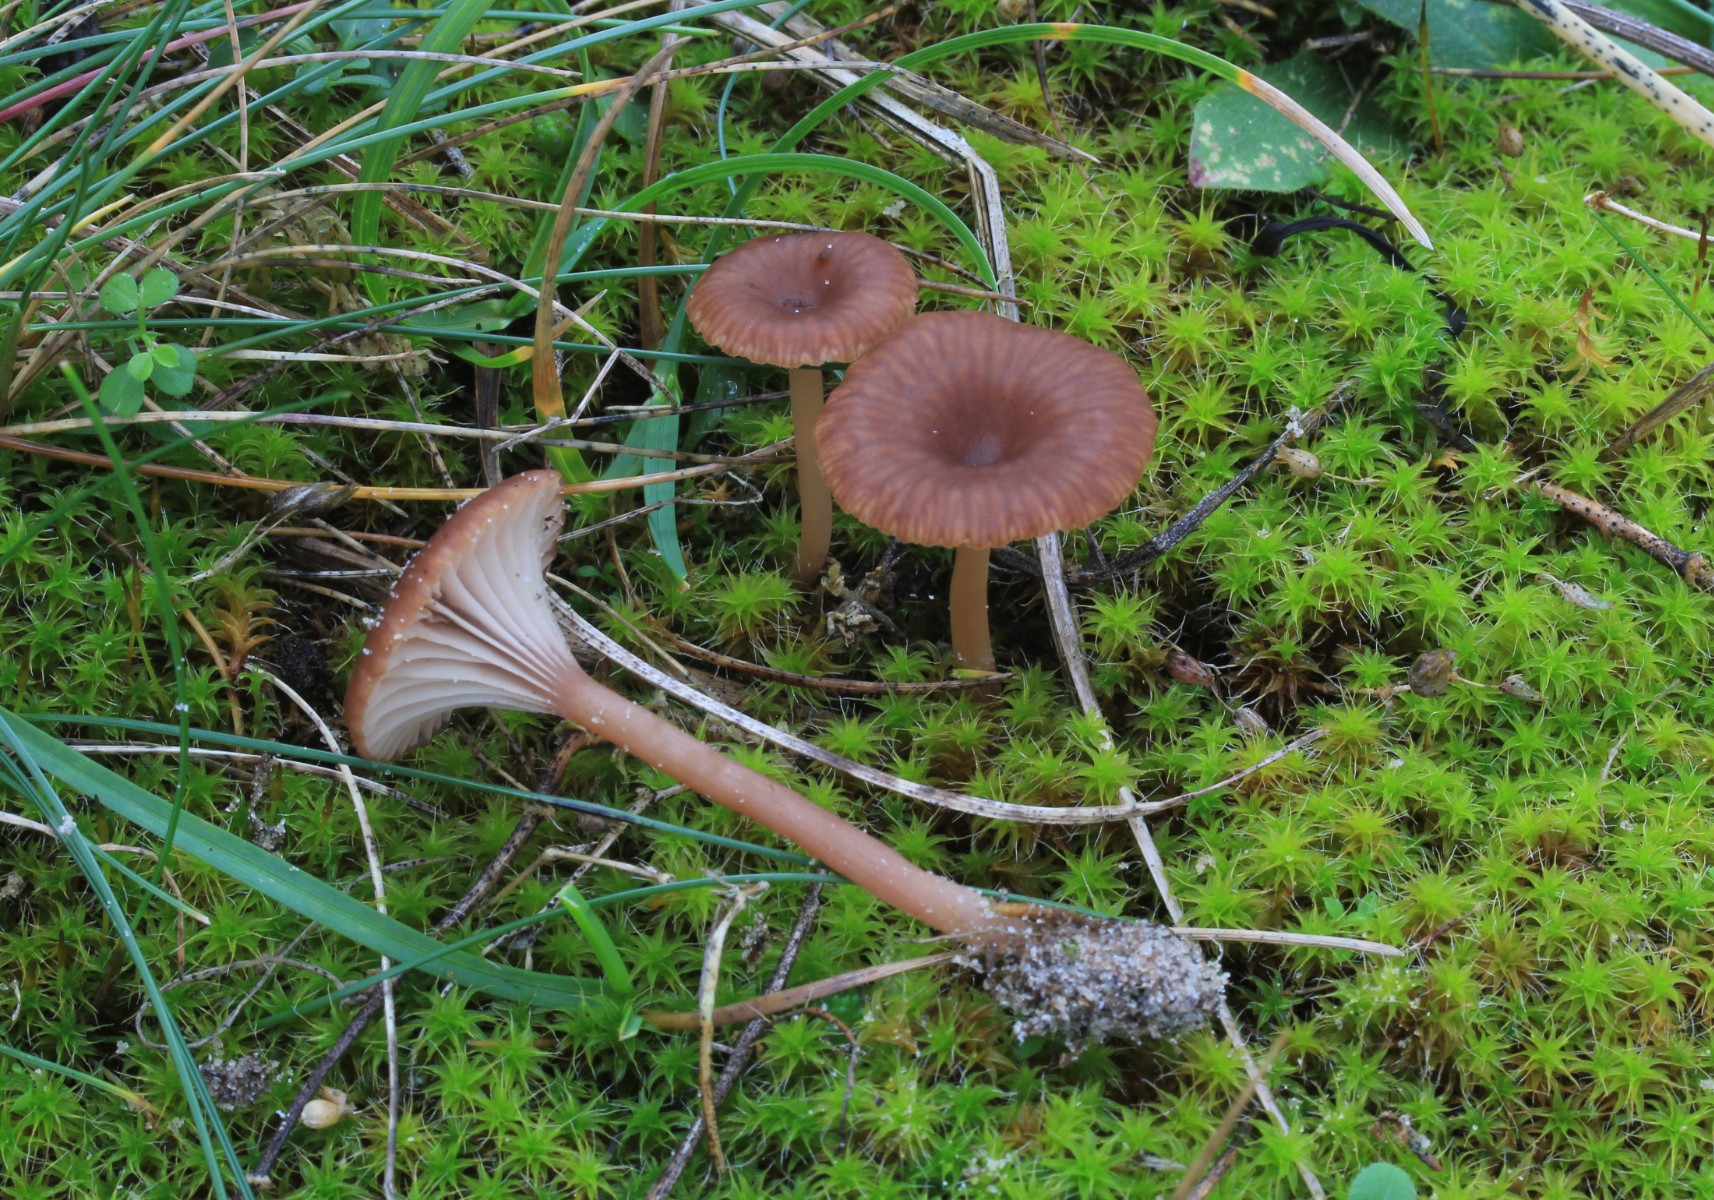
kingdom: Fungi
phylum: Basidiomycota
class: Agaricomycetes
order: Agaricales
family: Tricholomataceae
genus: Omphalina
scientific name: Omphalina pyxidata
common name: rødbrun navlehat
